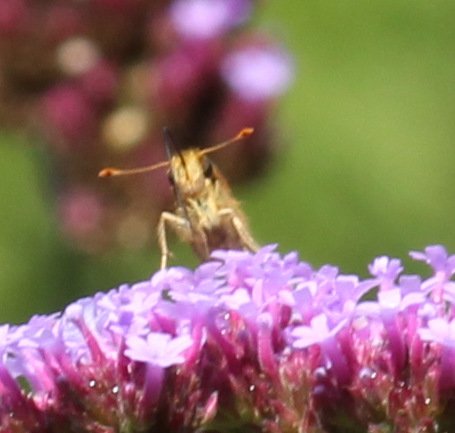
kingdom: Animalia
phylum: Arthropoda
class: Insecta
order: Lepidoptera
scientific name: Lepidoptera
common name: Butterflies
